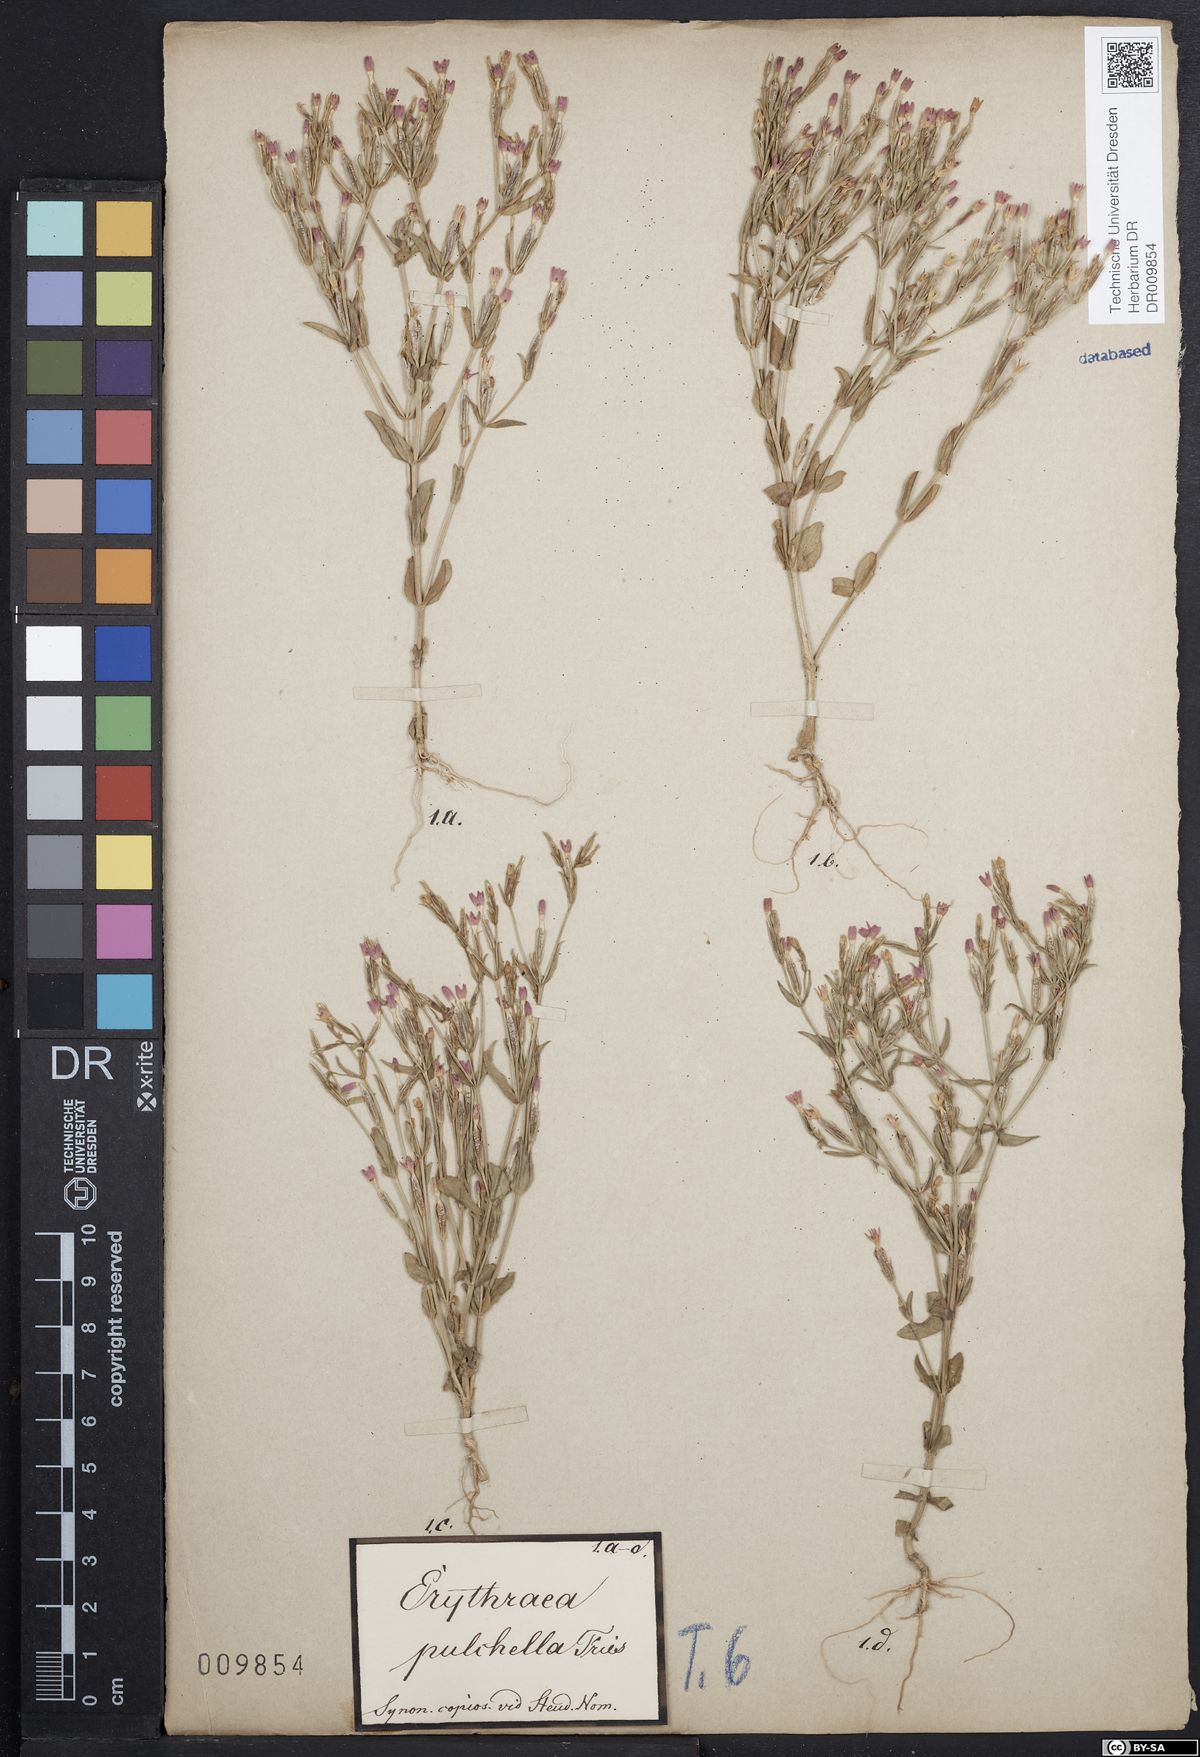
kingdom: Plantae
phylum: Tracheophyta
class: Magnoliopsida
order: Gentianales
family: Gentianaceae
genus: Centaurium
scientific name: Centaurium pulchellum
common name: Lesser centaury
